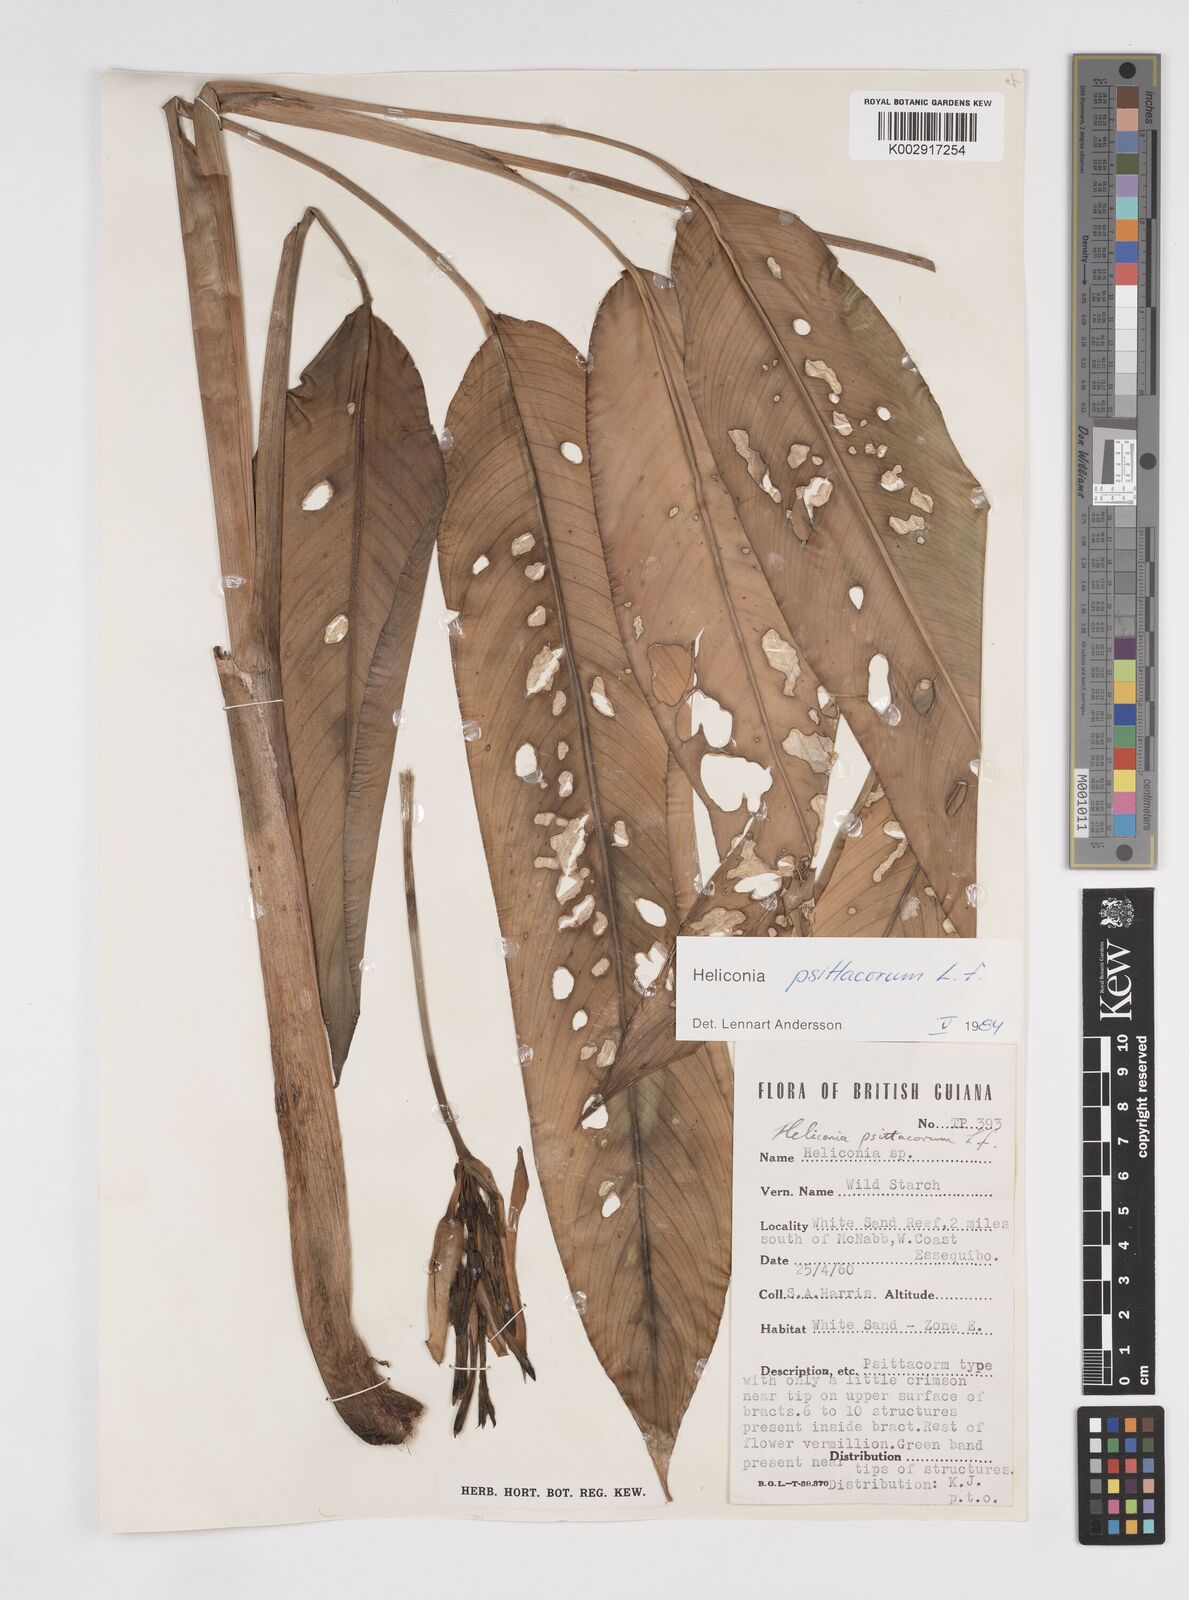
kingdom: Plantae
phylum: Tracheophyta
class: Liliopsida
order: Zingiberales
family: Heliconiaceae
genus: Heliconia
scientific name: Heliconia psittacorum
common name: Parrot's-flower
